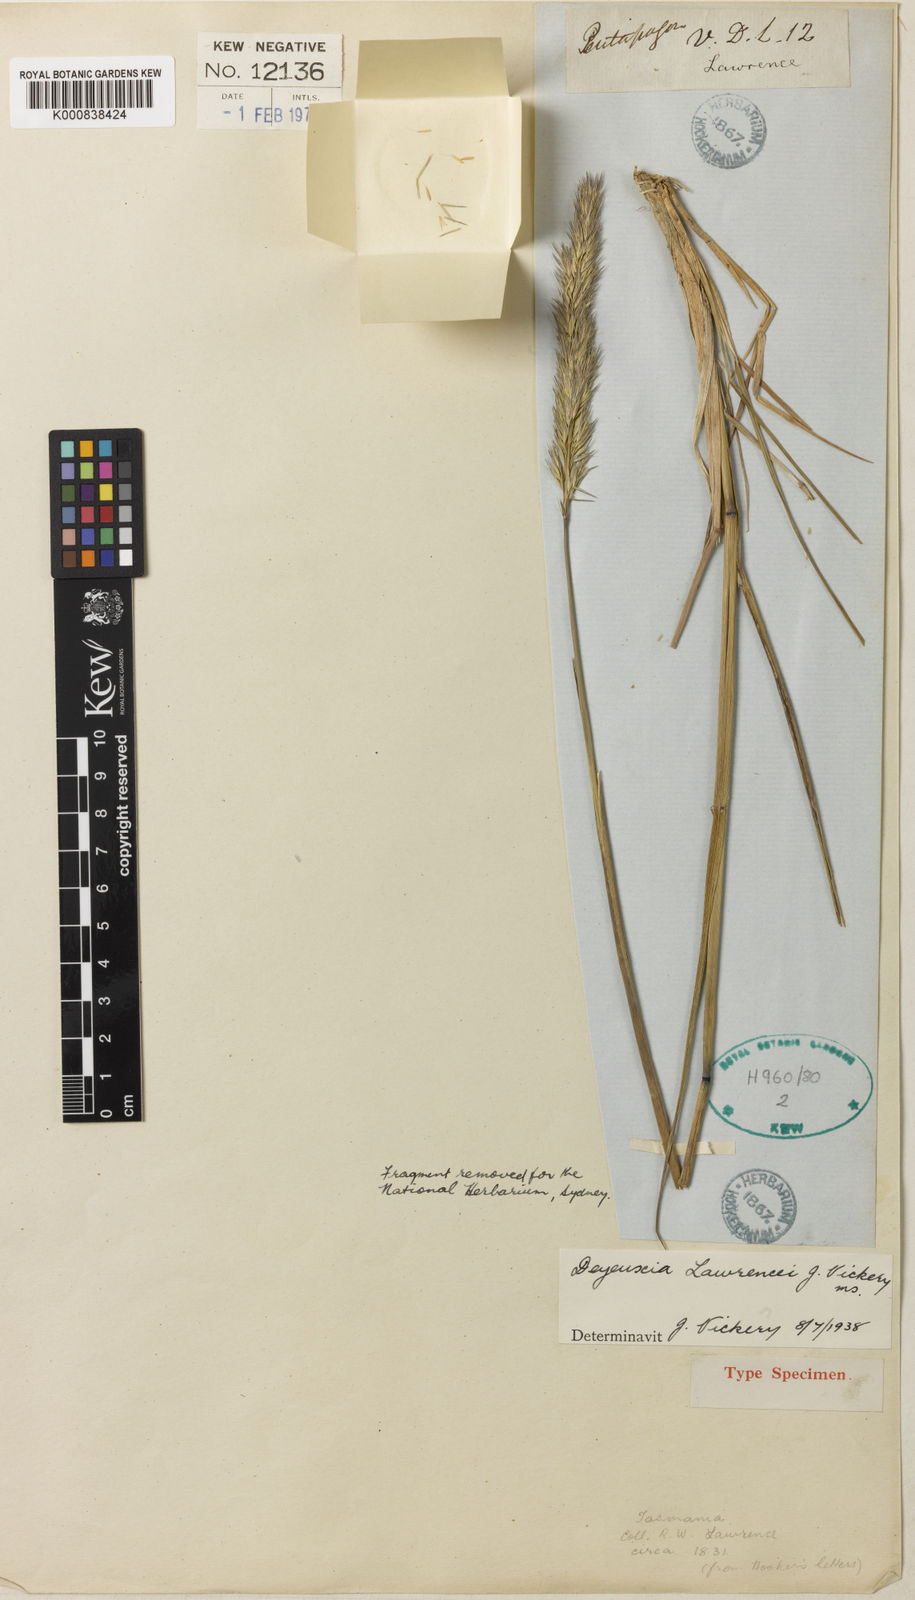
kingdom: Plantae
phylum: Tracheophyta
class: Liliopsida
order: Poales
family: Poaceae
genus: Calamagrostis
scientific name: Calamagrostis lawrencei
